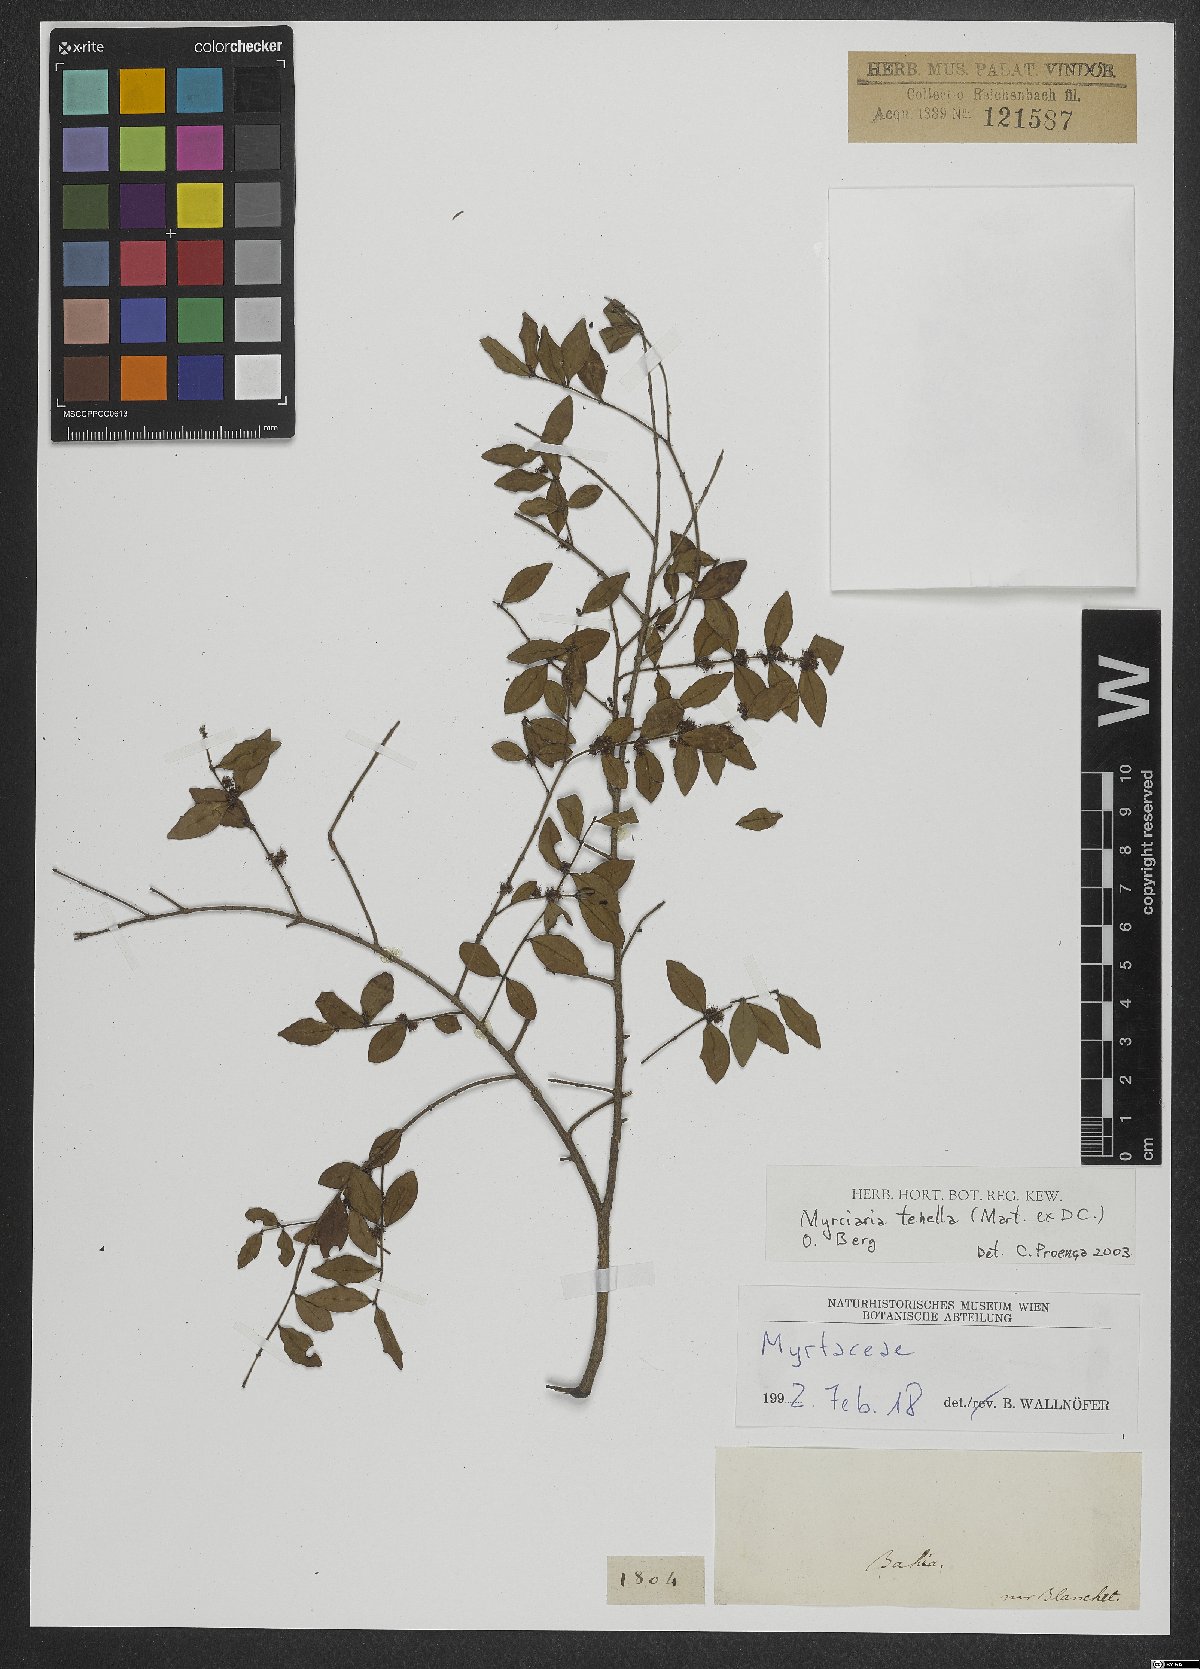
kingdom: Plantae
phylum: Tracheophyta
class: Magnoliopsida
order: Myrtales
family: Myrtaceae
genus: Myrciaria
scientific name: Myrciaria tenella
